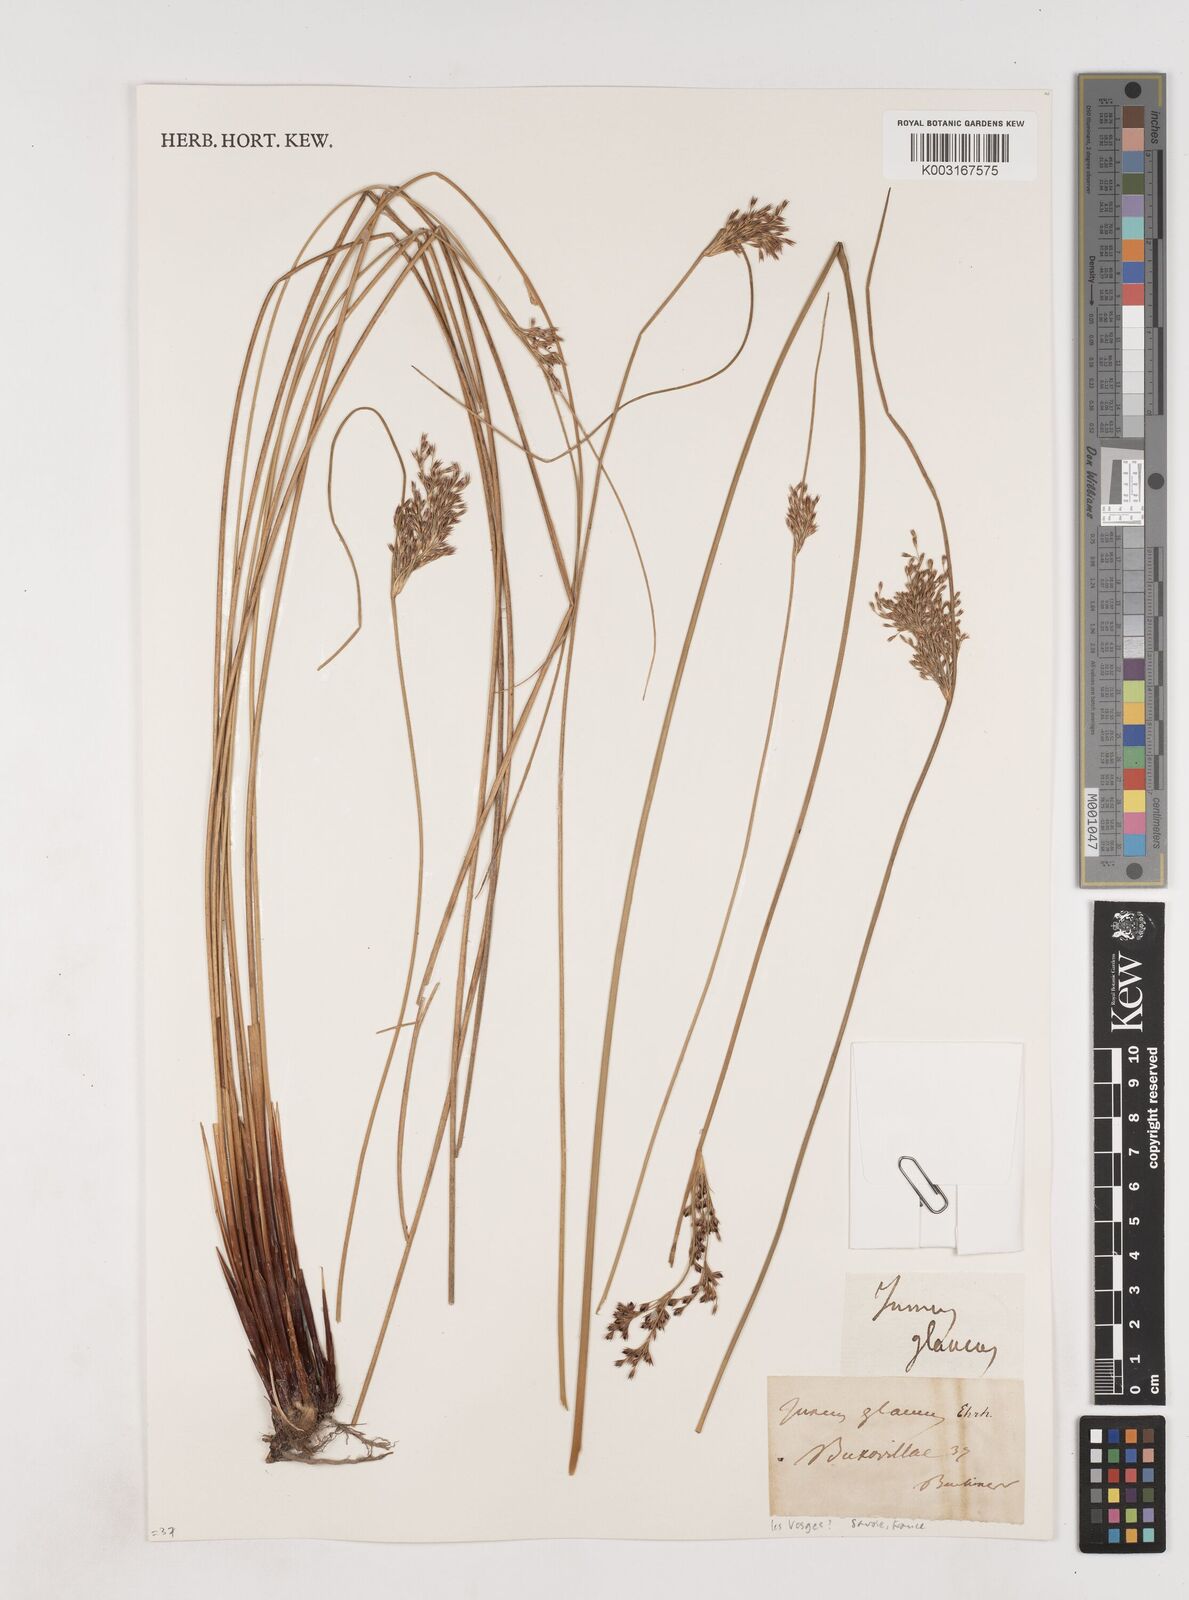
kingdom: Plantae
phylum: Tracheophyta
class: Liliopsida
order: Poales
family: Juncaceae
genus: Juncus
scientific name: Juncus inflexus
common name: Hard rush
